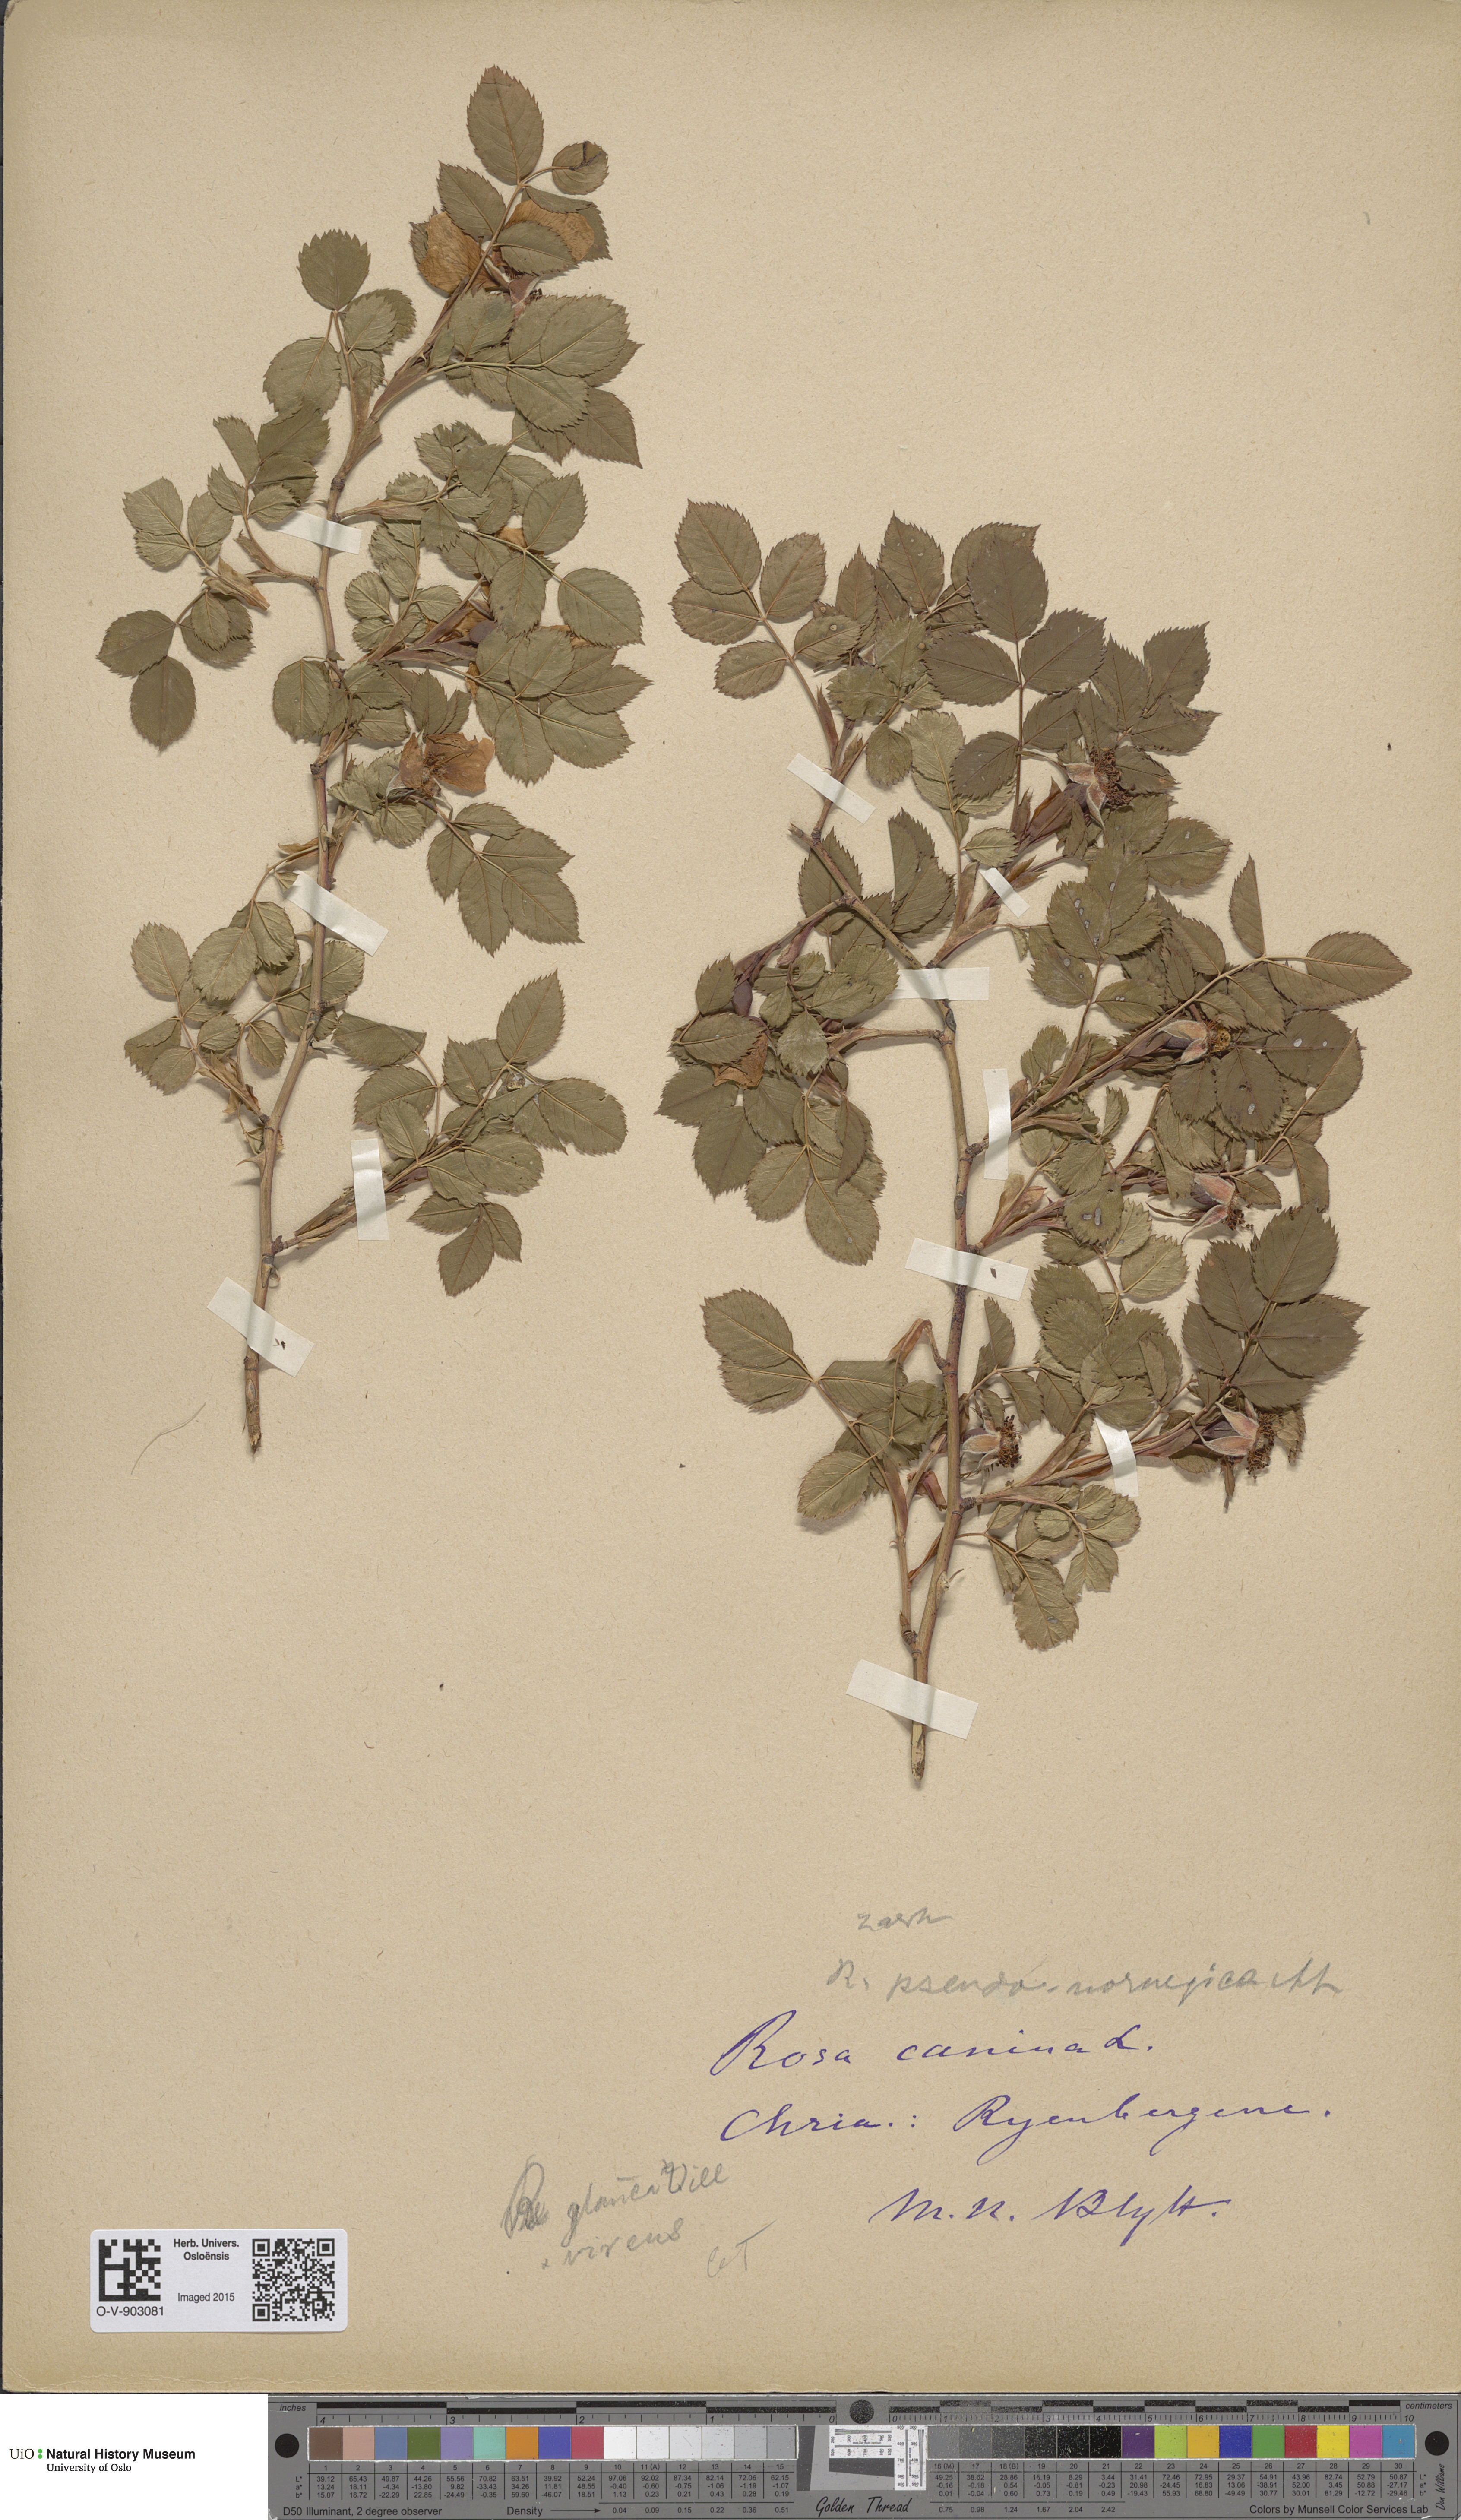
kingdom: Plantae
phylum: Tracheophyta
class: Magnoliopsida
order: Rosales
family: Rosaceae
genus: Rosa
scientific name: Rosa dumalis
